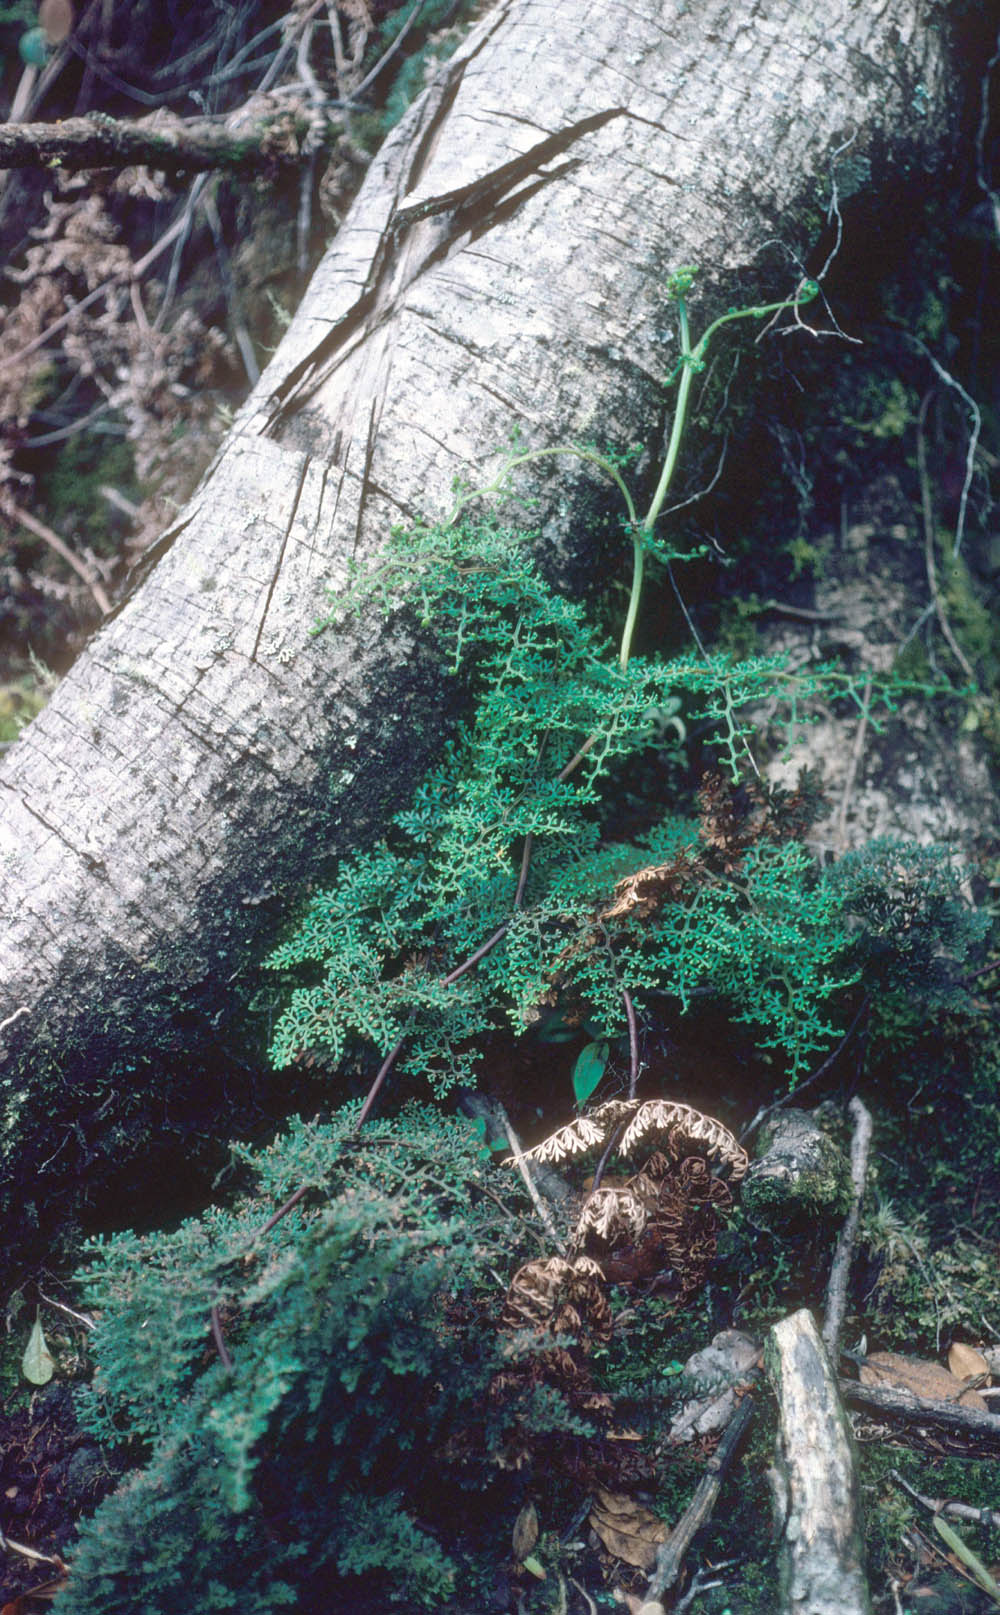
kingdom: Plantae
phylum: Tracheophyta
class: Polypodiopsida
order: Polypodiales
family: Pteridaceae
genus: Jamesonia
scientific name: Jamesonia glaberrima
